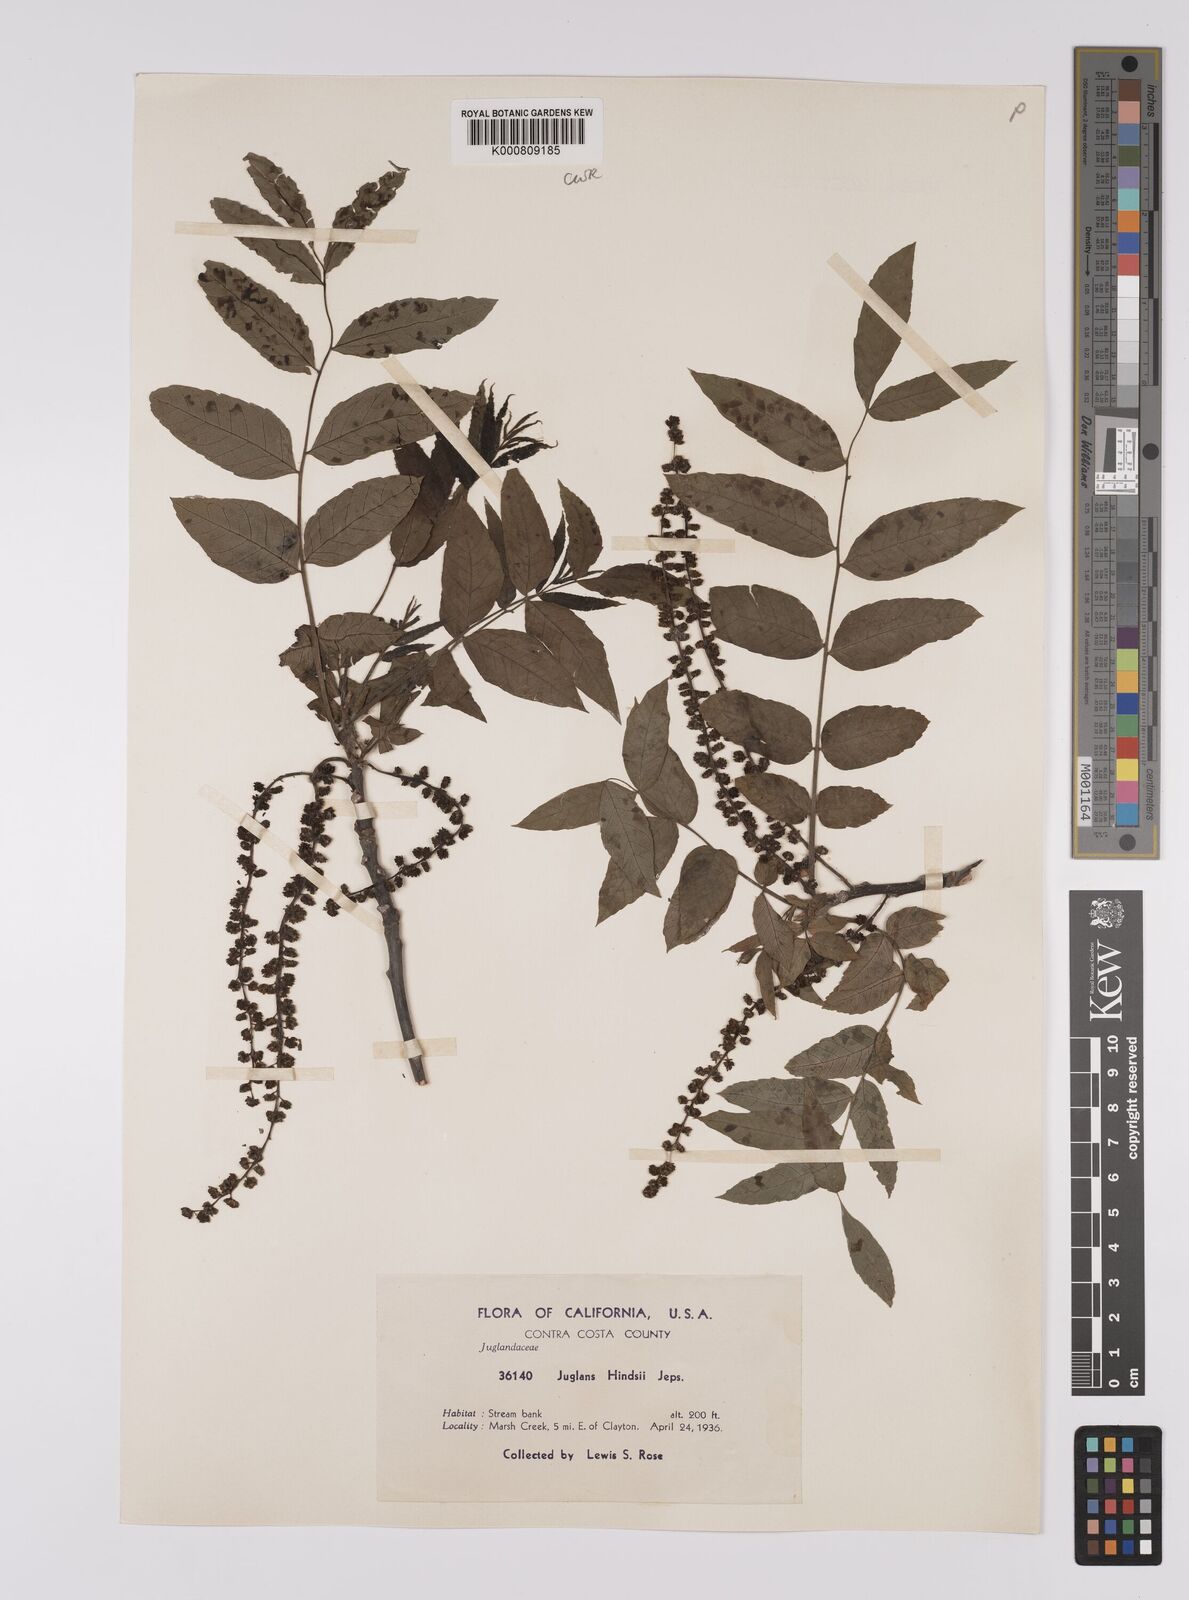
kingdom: Plantae
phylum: Tracheophyta
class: Magnoliopsida
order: Fagales
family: Juglandaceae
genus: Juglans
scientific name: Juglans
